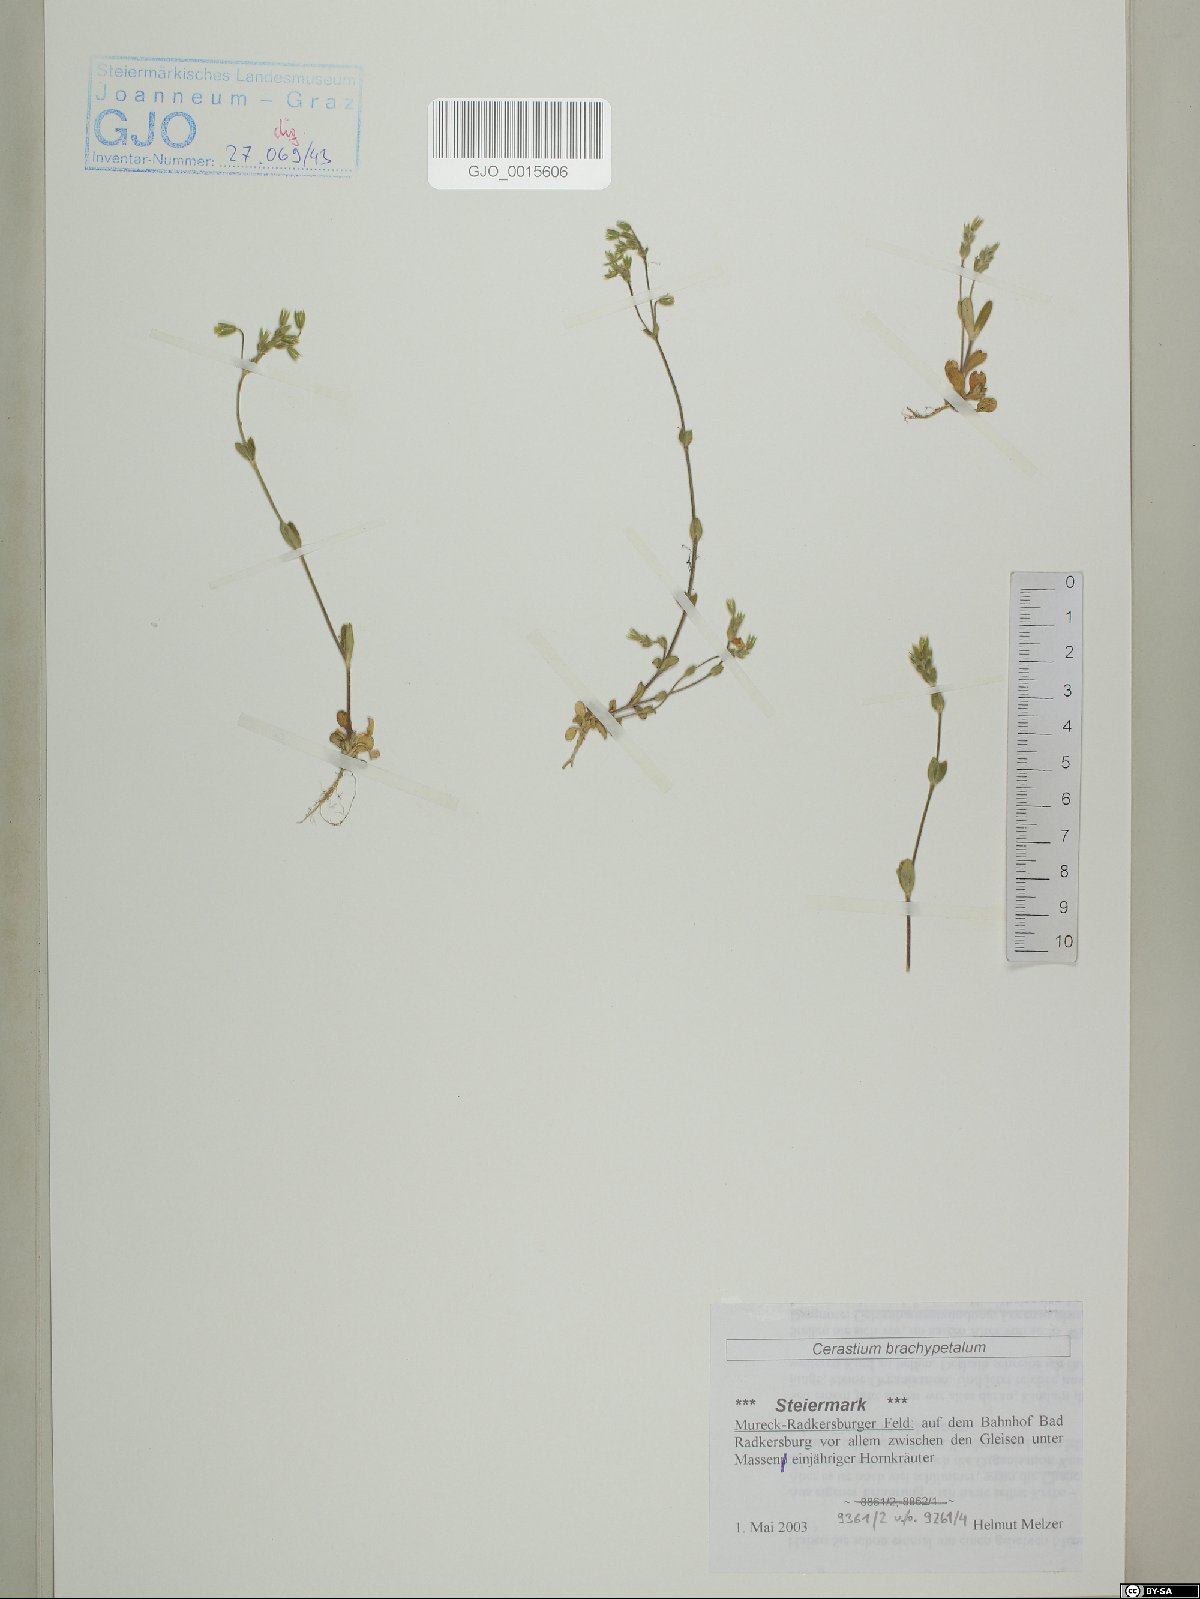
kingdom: Plantae
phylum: Tracheophyta
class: Magnoliopsida
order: Caryophyllales
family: Caryophyllaceae
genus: Cerastium
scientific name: Cerastium brachypetalum
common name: Grey mouse-ear
